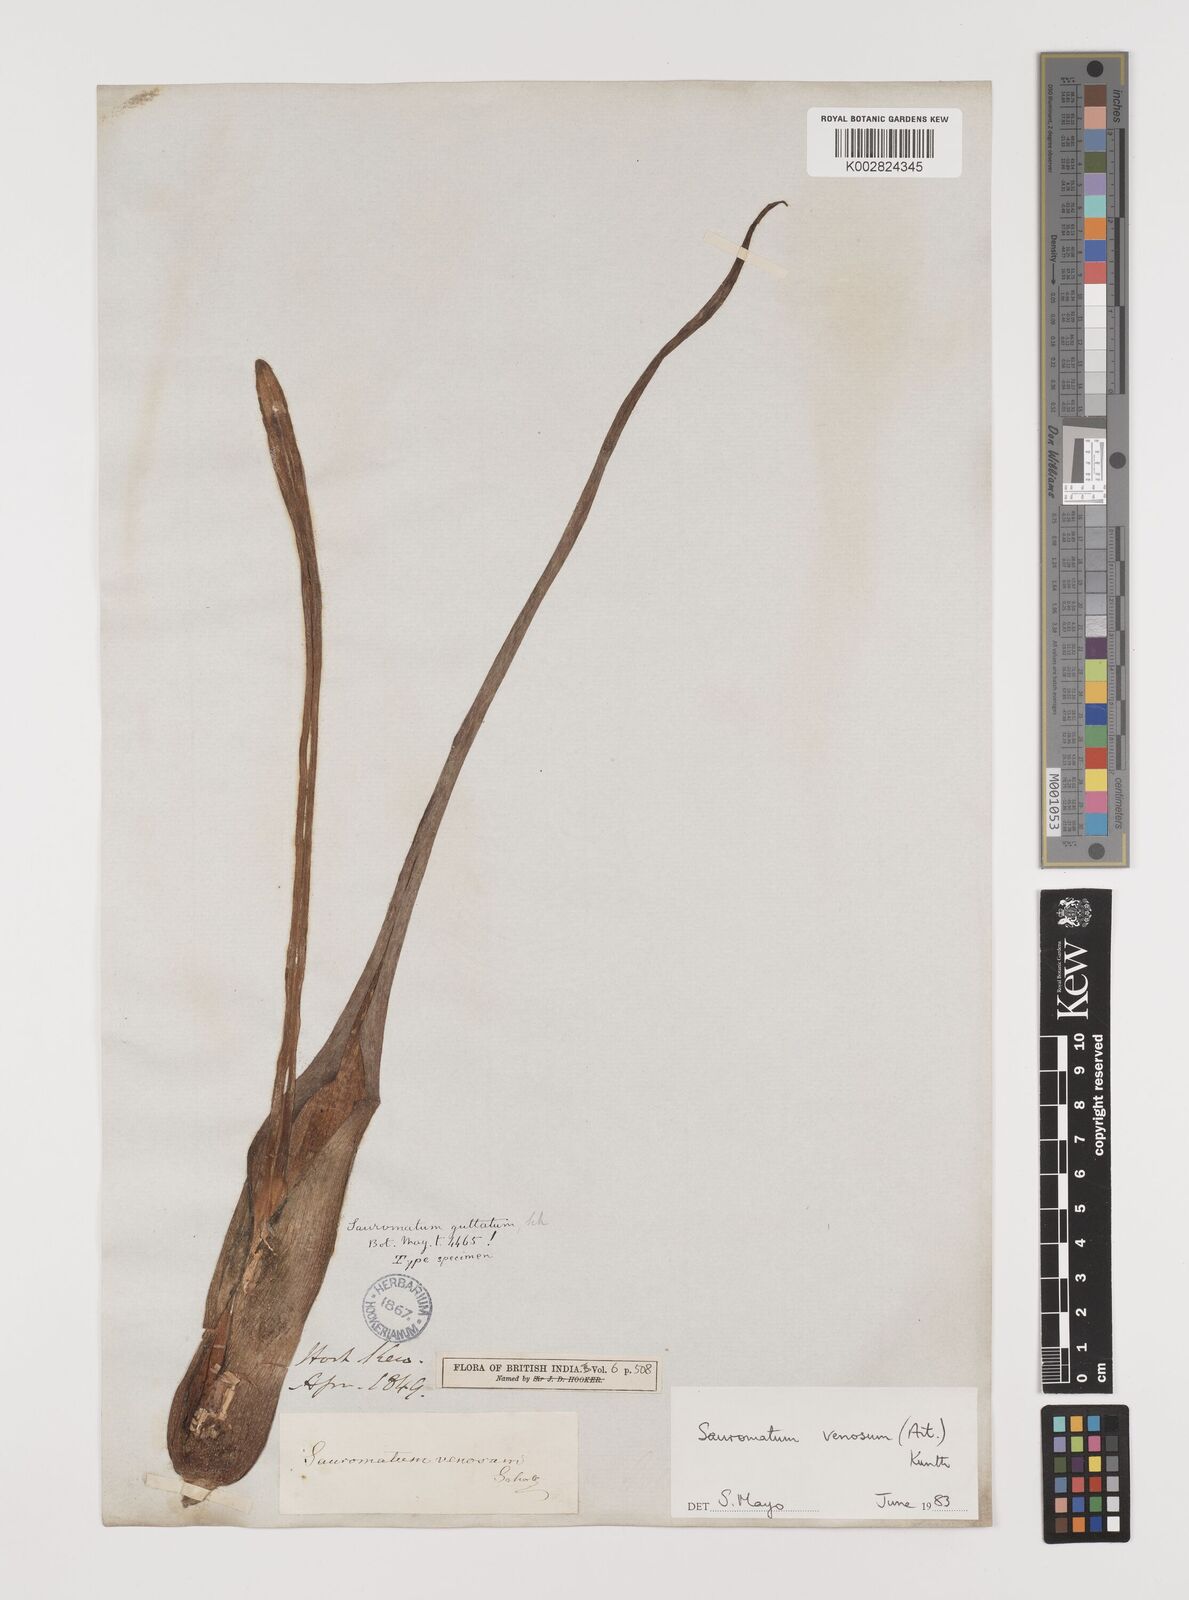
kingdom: Plantae
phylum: Tracheophyta
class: Liliopsida
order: Alismatales
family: Araceae
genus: Sauromatum
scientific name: Sauromatum venosum
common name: Voodoo lily
